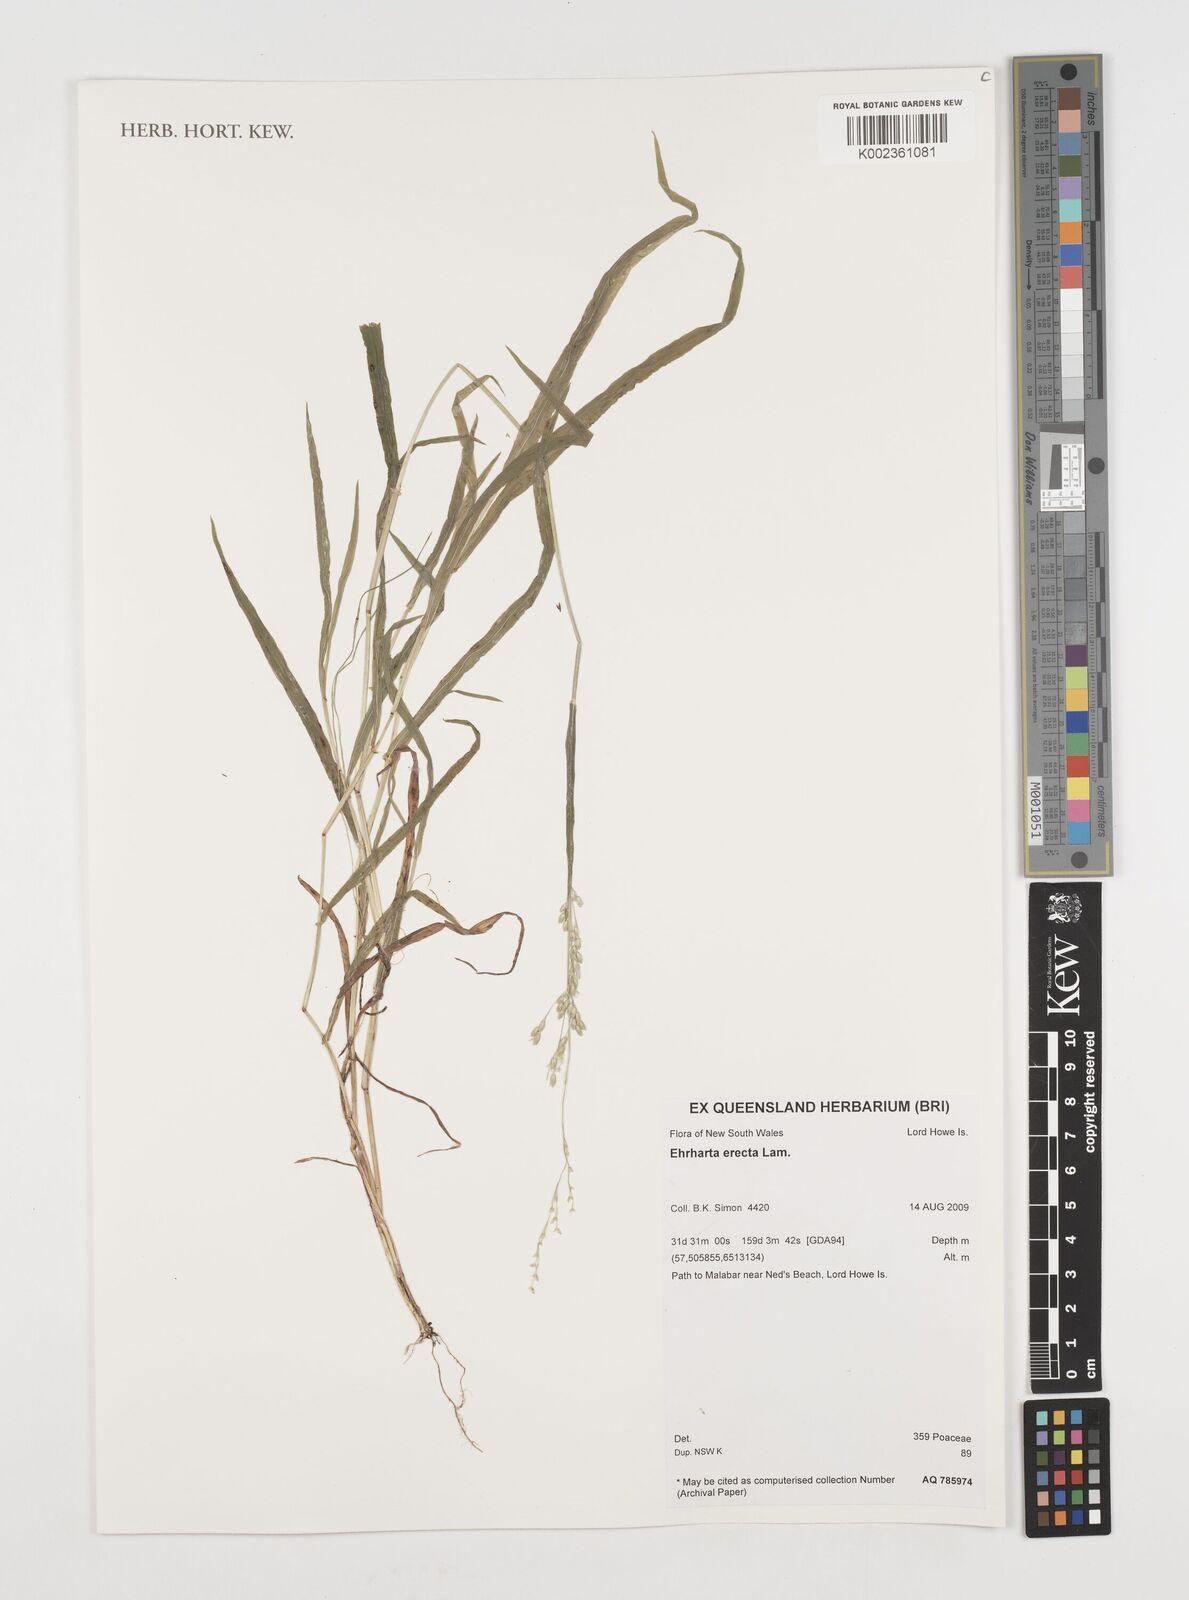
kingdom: Plantae
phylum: Tracheophyta
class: Liliopsida
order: Poales
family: Poaceae
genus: Ehrharta
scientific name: Ehrharta erecta
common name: Panic veldtgrass
